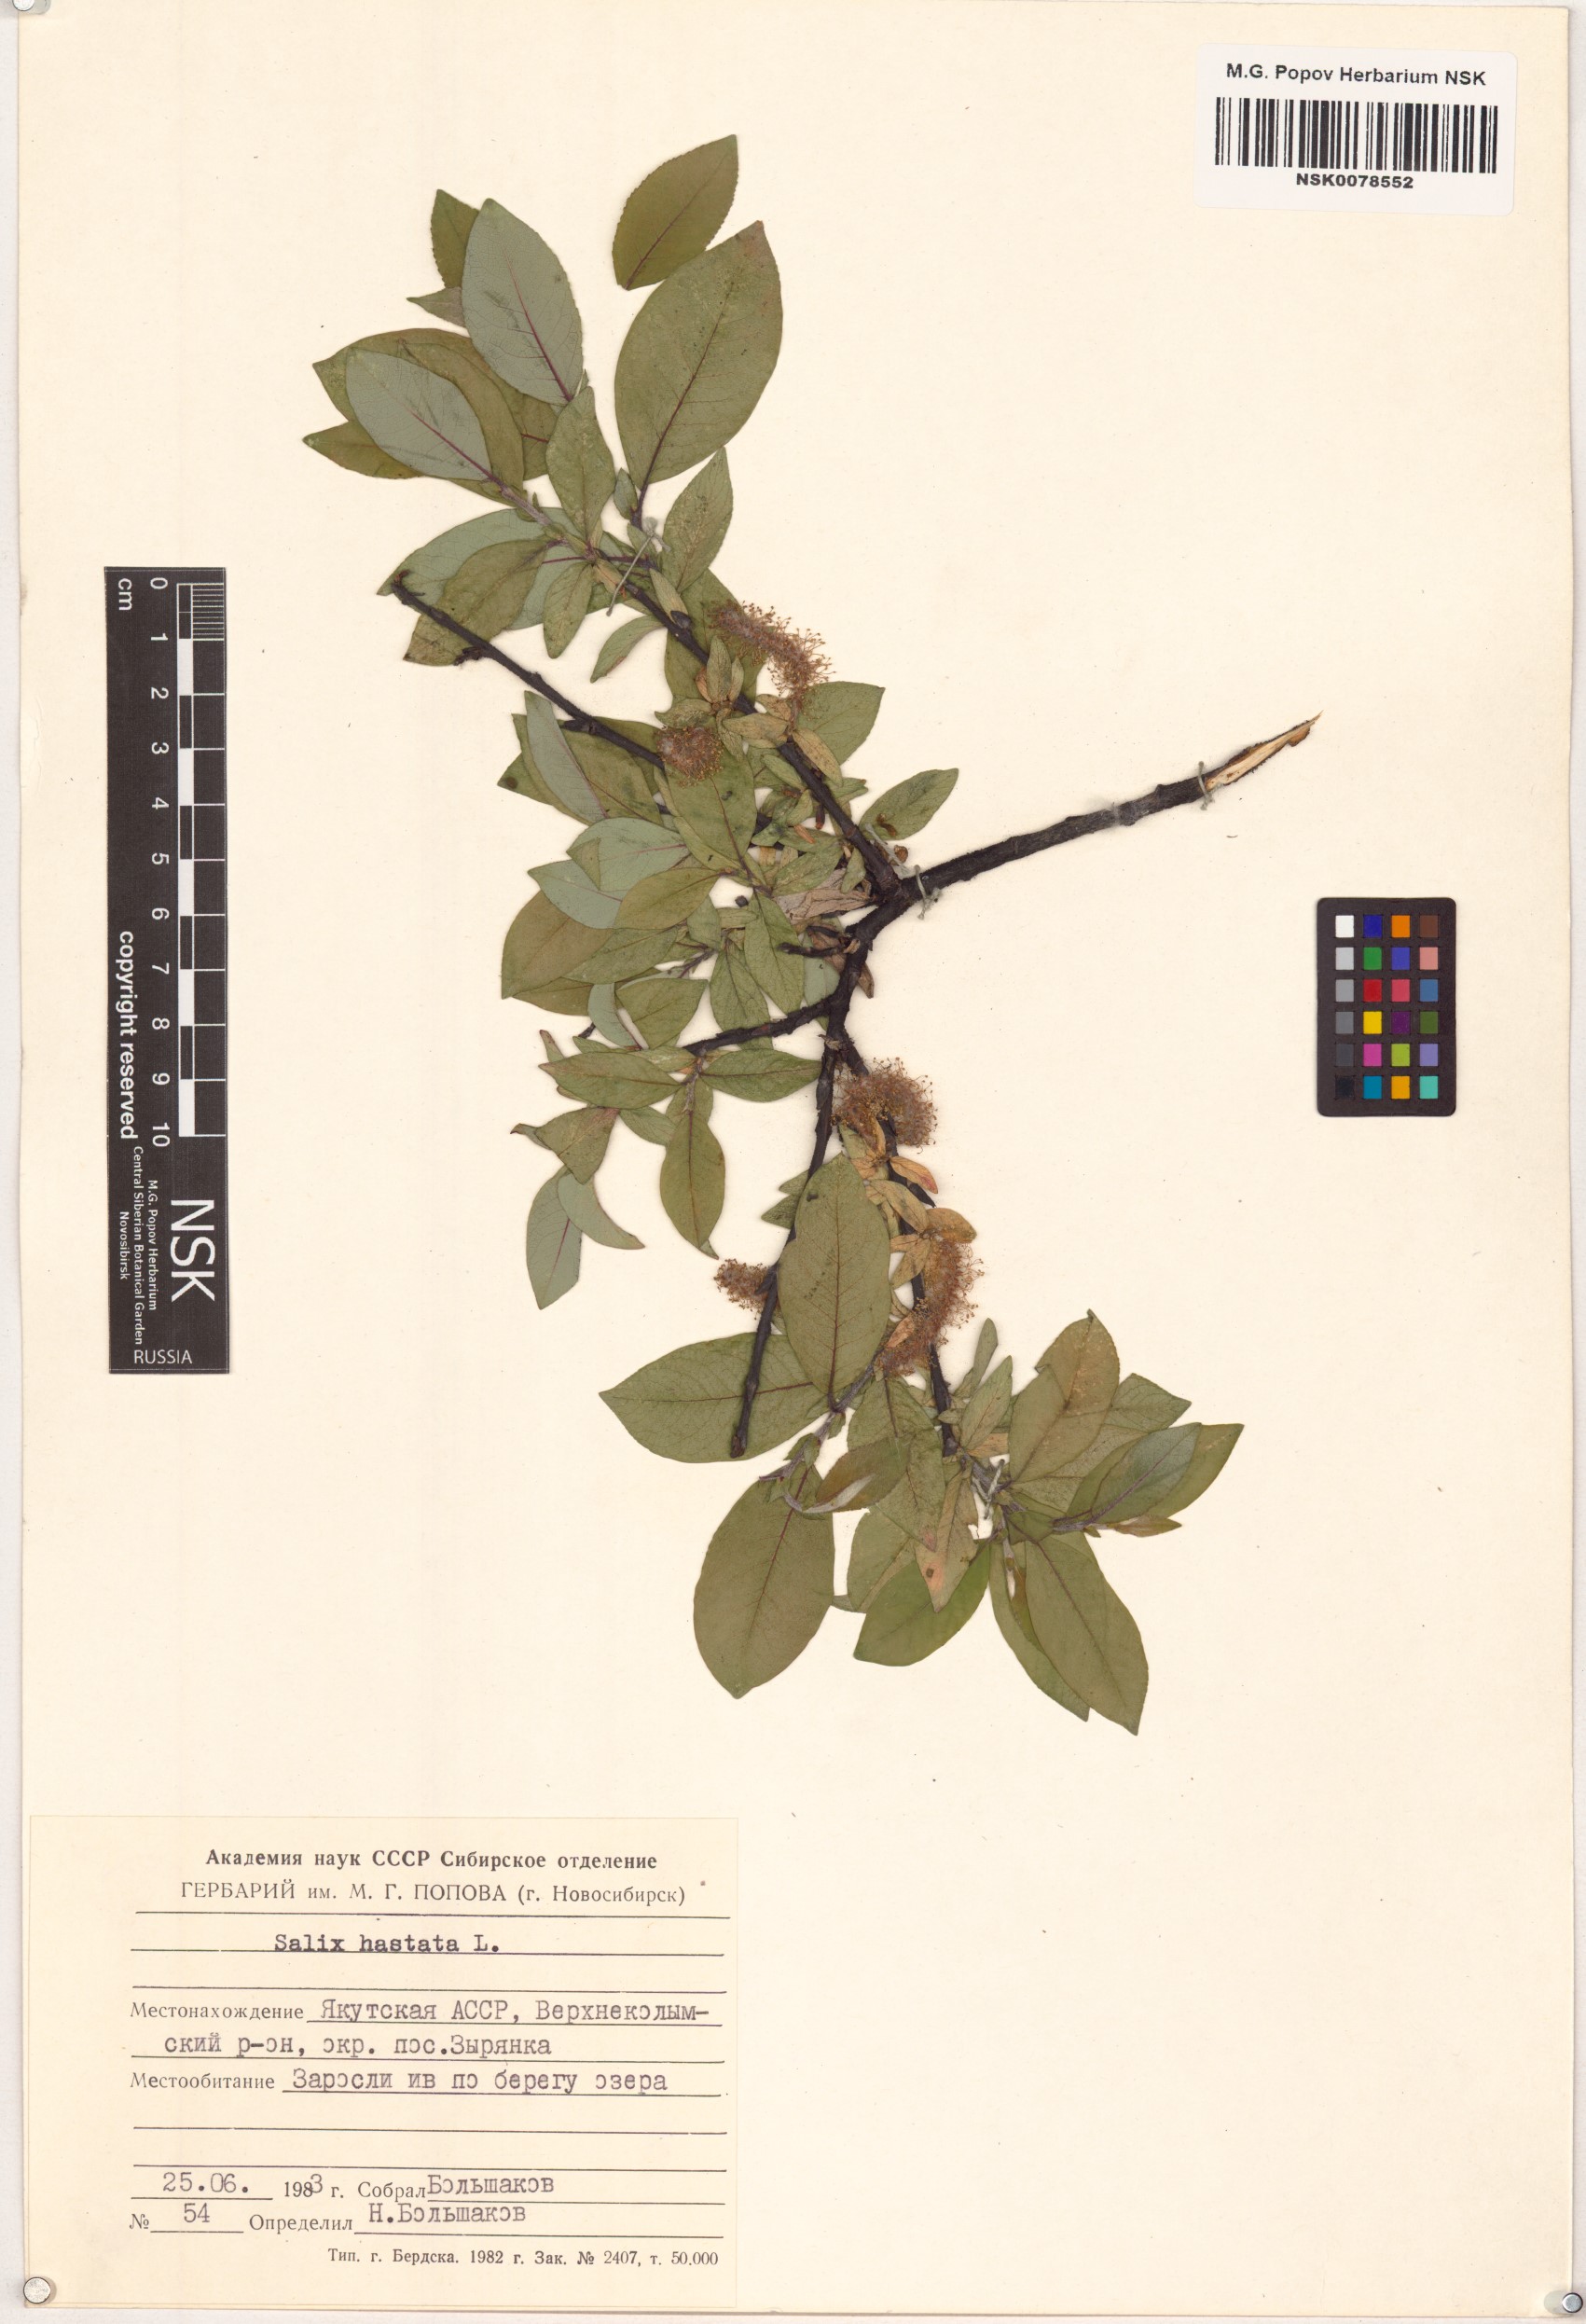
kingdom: Plantae
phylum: Tracheophyta
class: Magnoliopsida
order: Malpighiales
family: Salicaceae
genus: Salix
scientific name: Salix hastata
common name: Halberd willow
